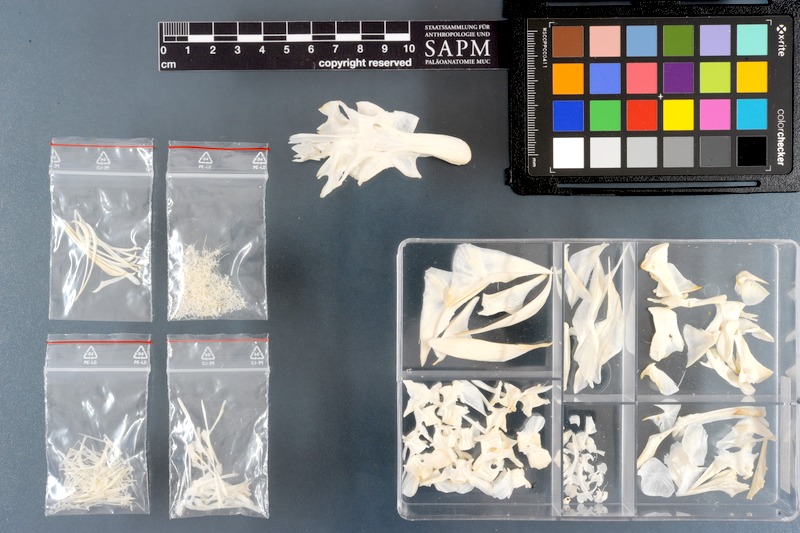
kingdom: Animalia
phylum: Chordata
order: Tetraodontiformes
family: Tetraodontidae
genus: Lagocephalus
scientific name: Lagocephalus spadiceus
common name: Half-smooth golden pufferfish
